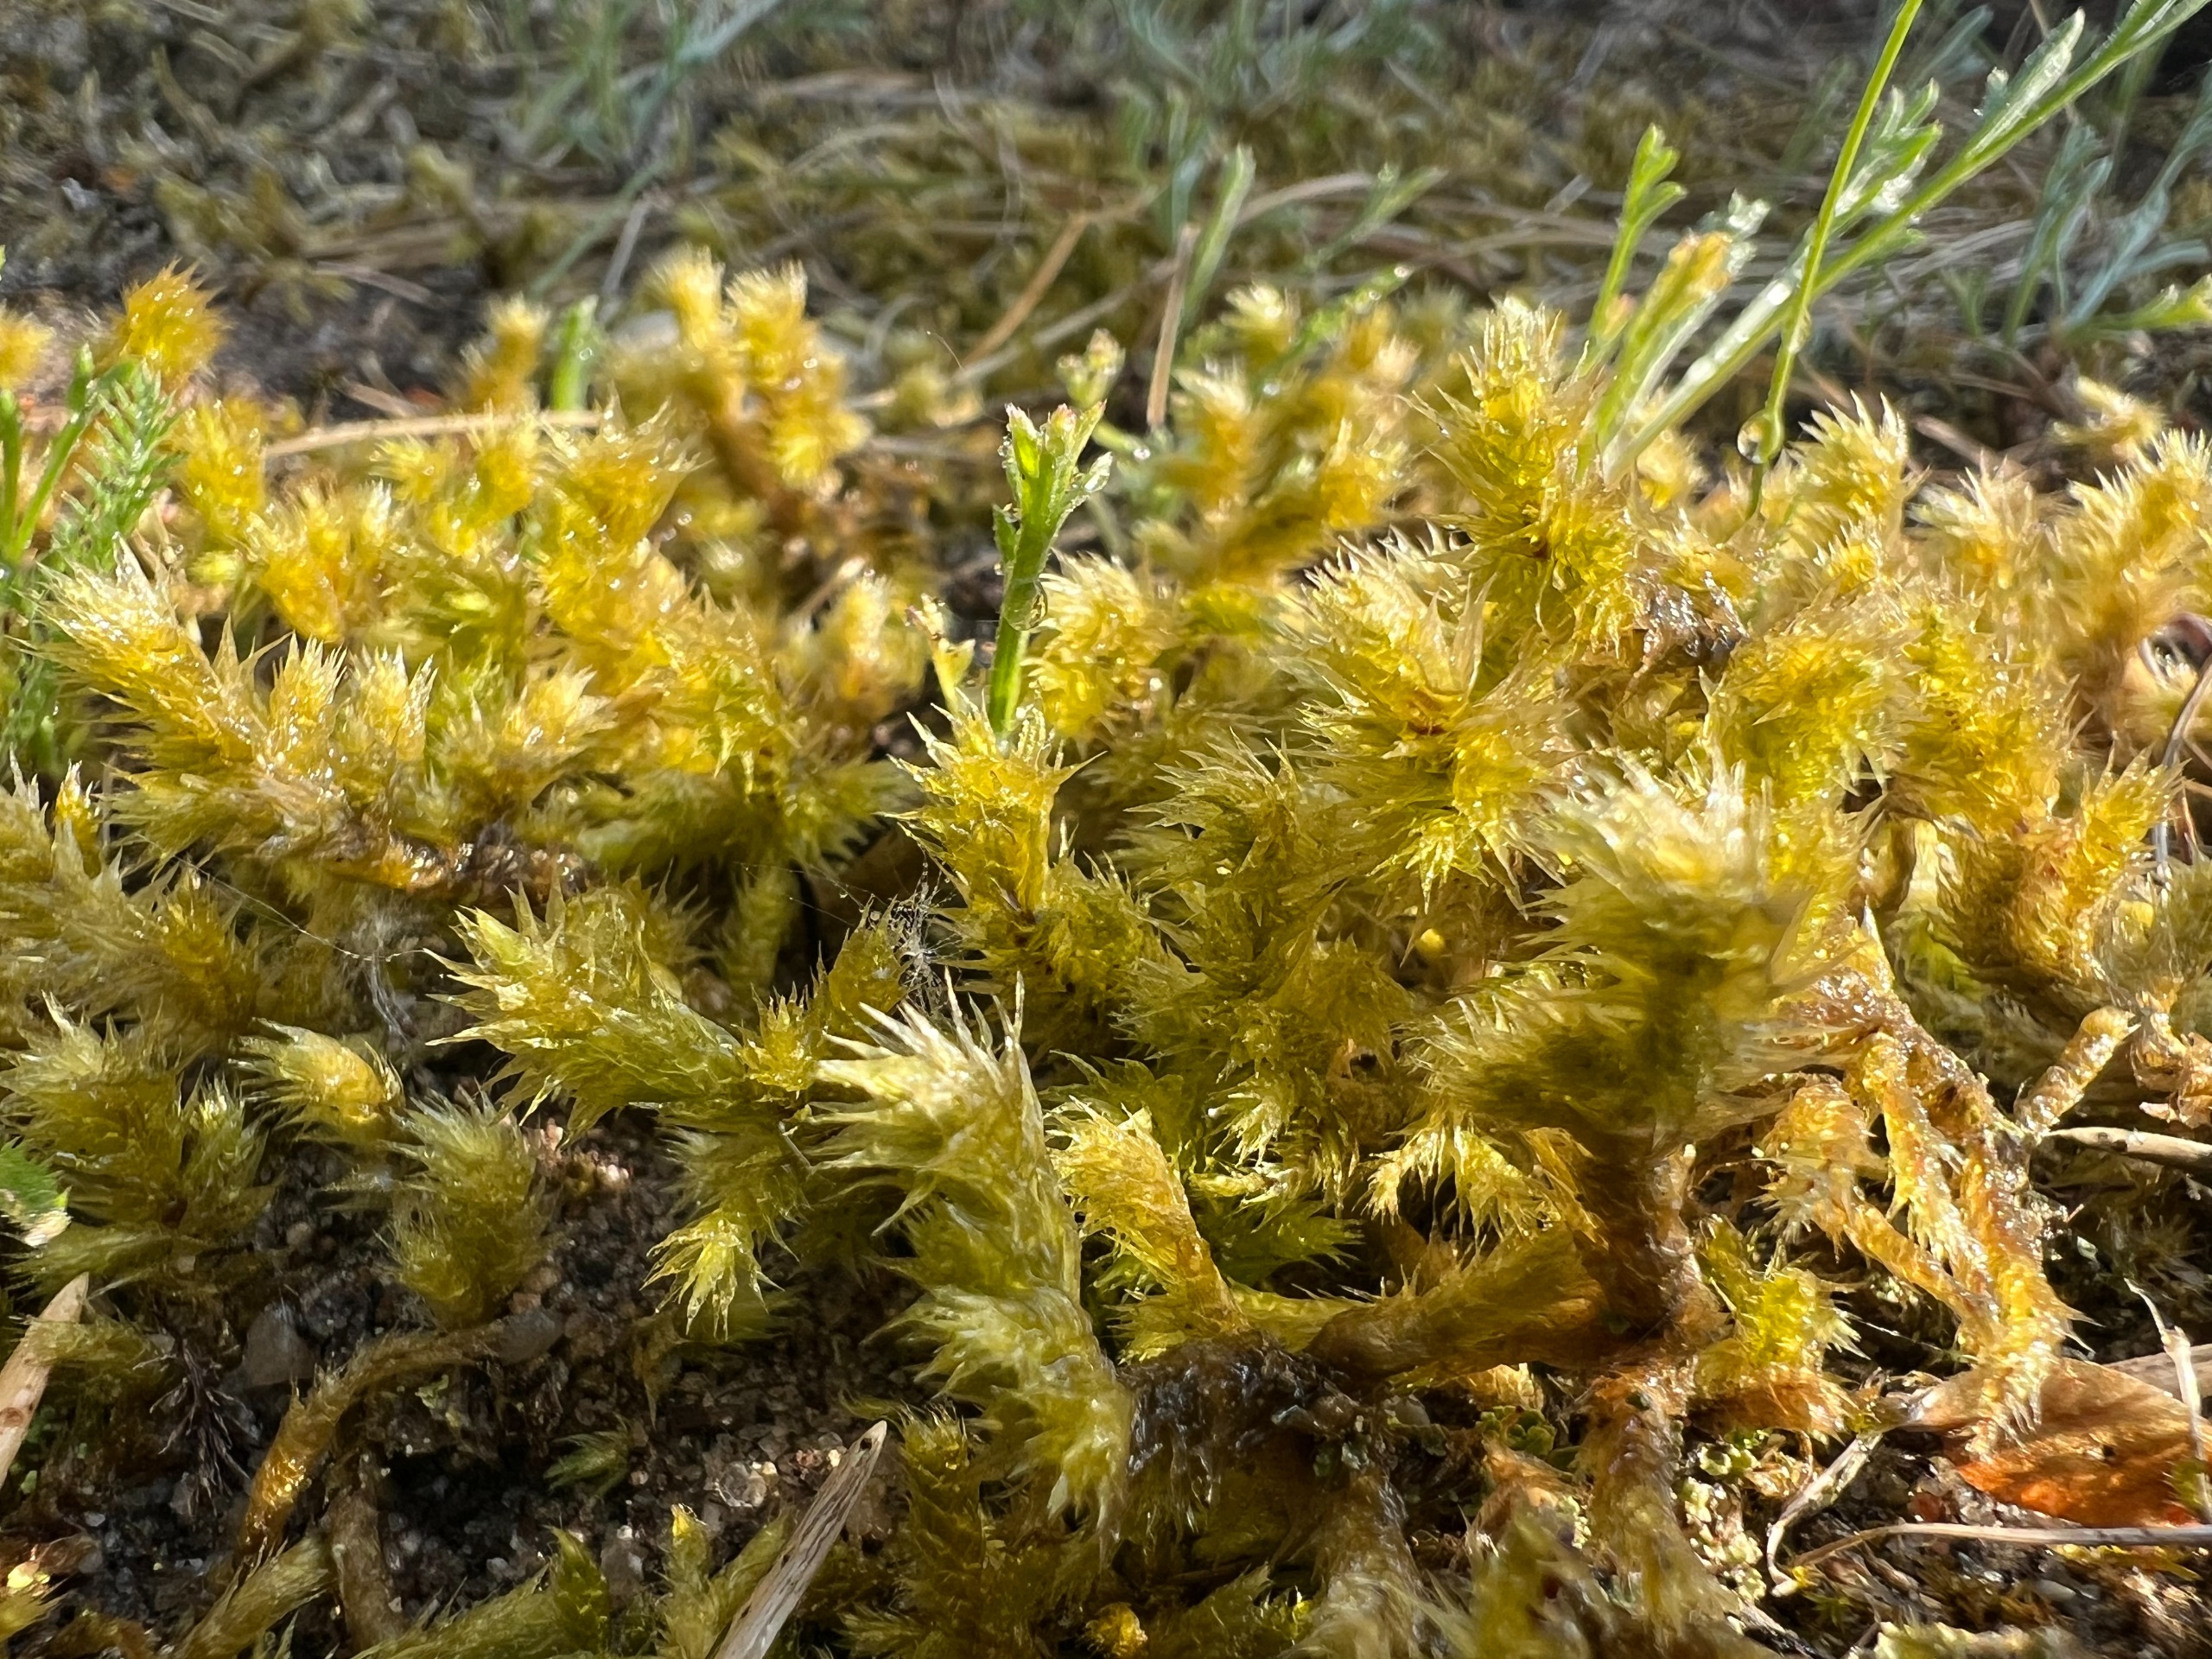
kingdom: Plantae
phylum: Bryophyta
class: Bryopsida
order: Hypnales
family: Hylocomiaceae
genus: Hylocomiadelphus
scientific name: Hylocomiadelphus triquetrus
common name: Stor kransemos
